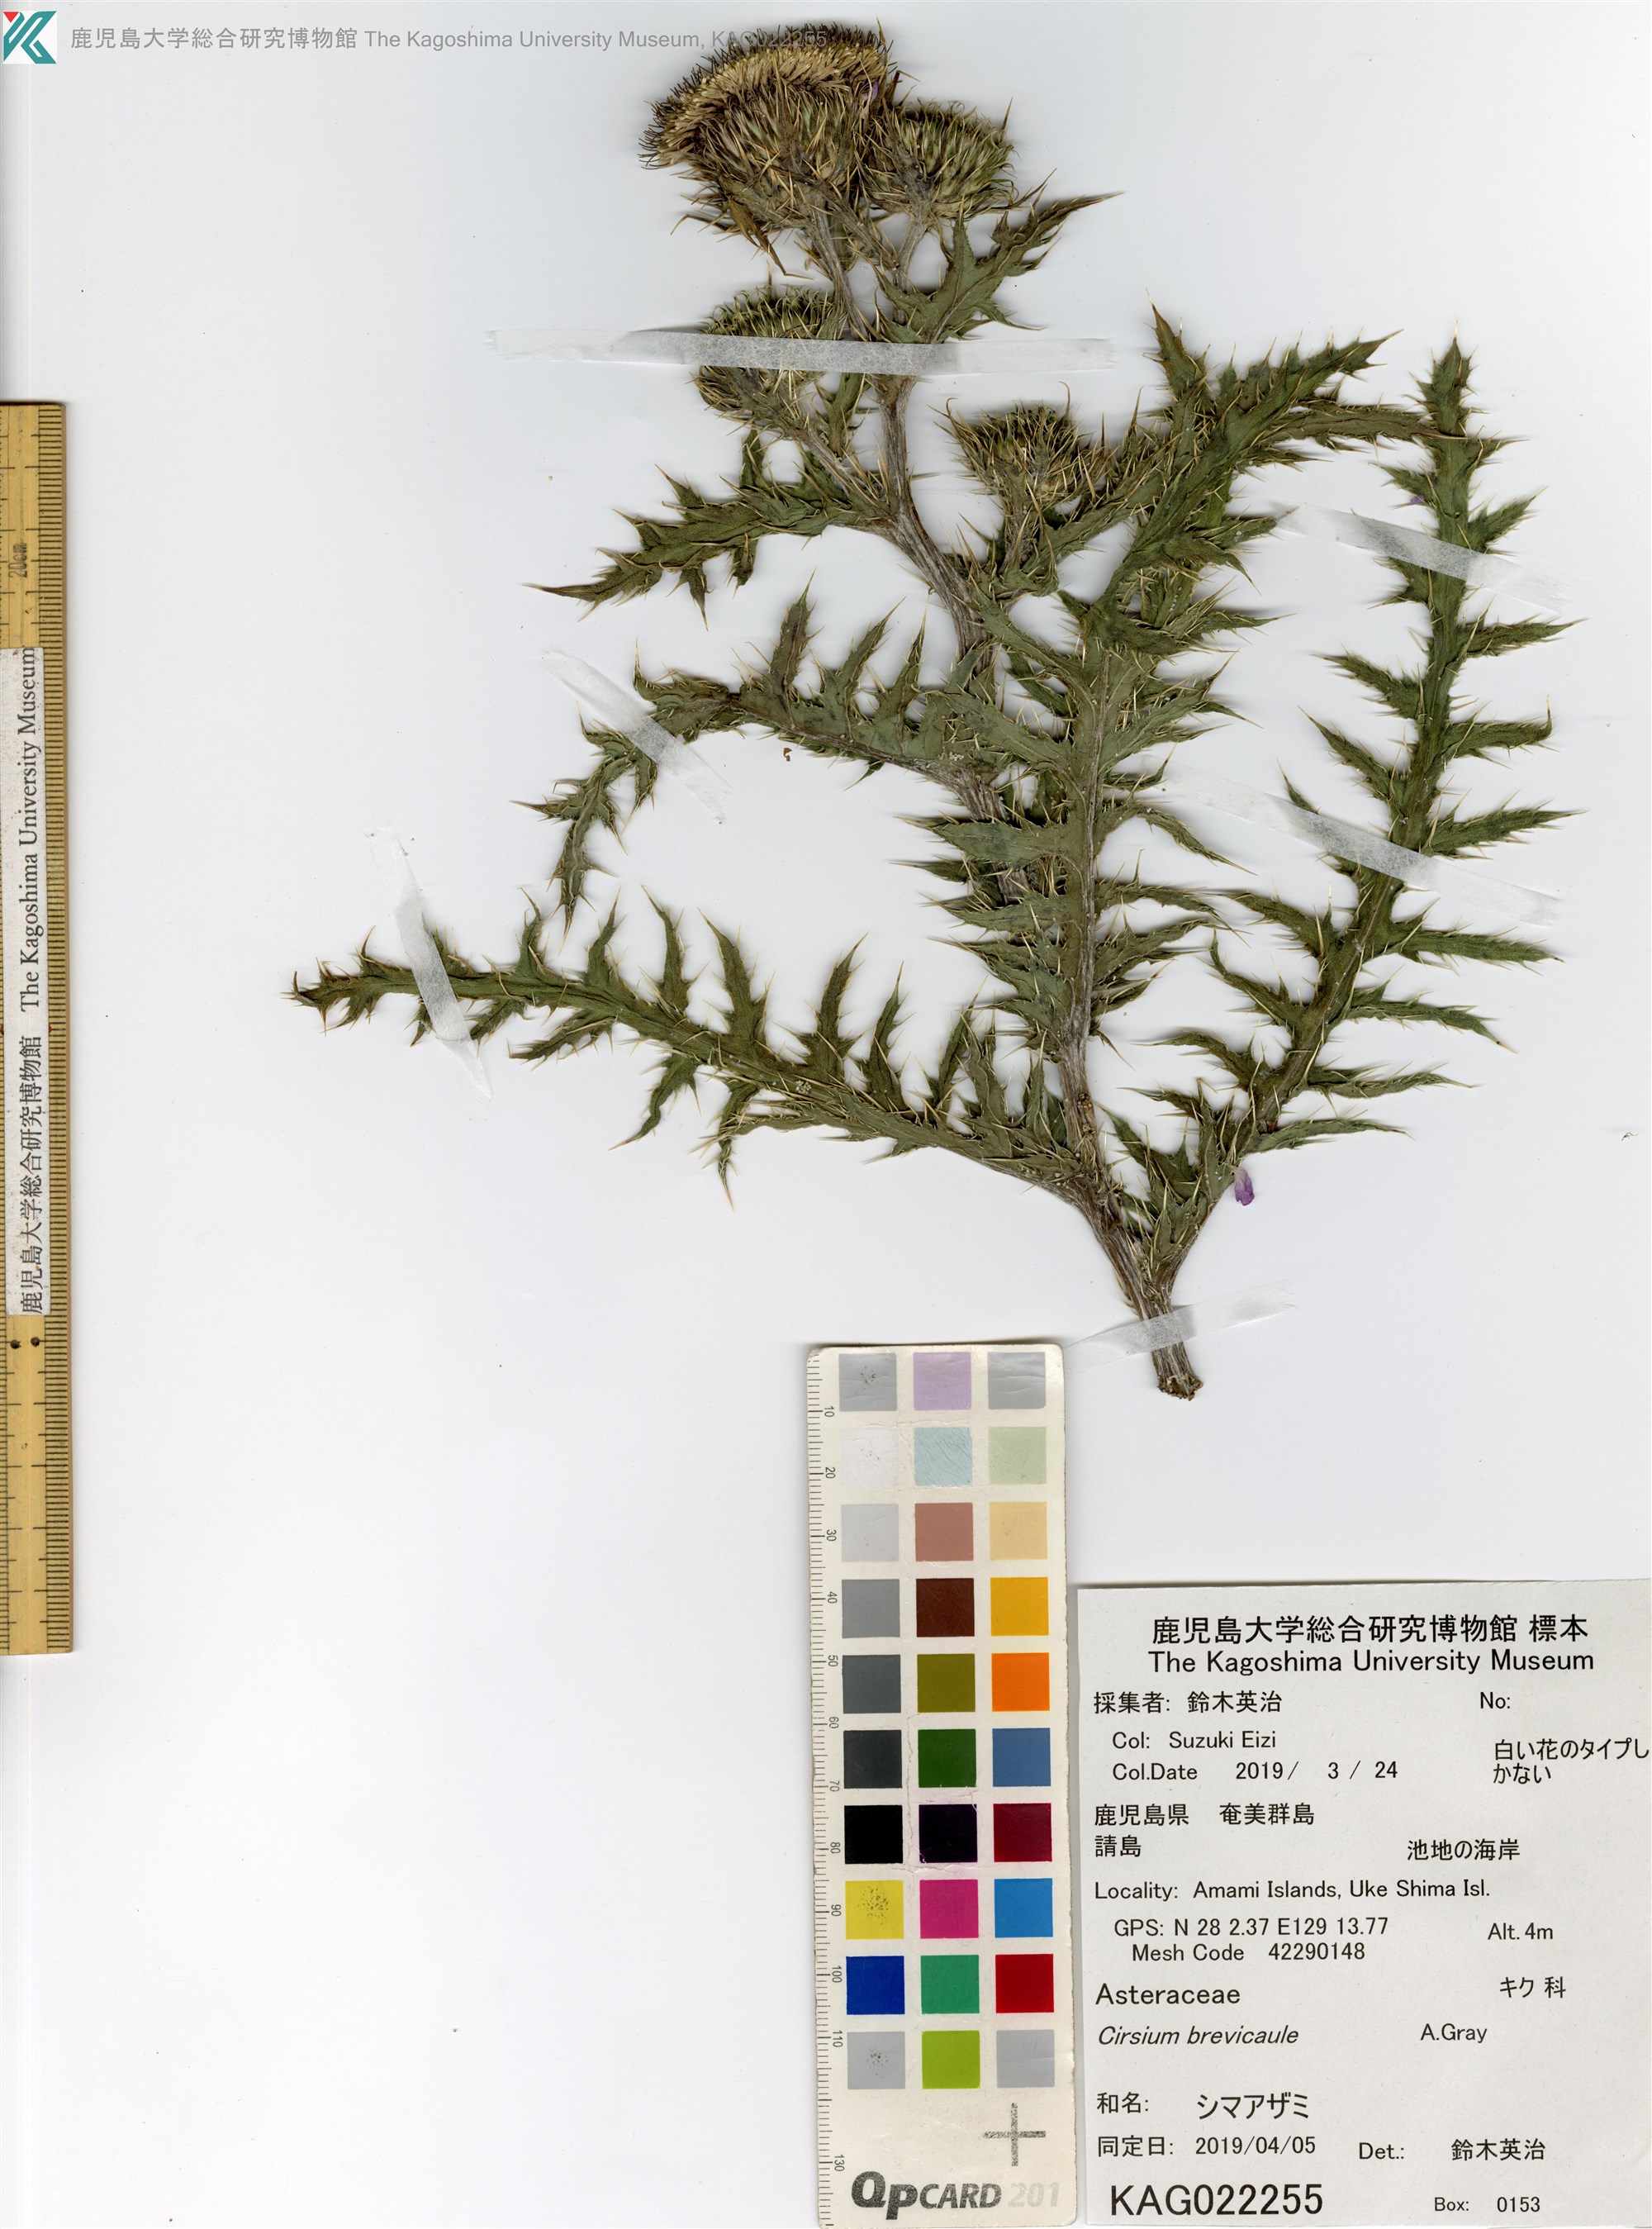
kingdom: Plantae
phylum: Tracheophyta
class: Magnoliopsida
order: Asterales
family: Asteraceae
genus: Cirsium
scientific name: Cirsium brevicaule
